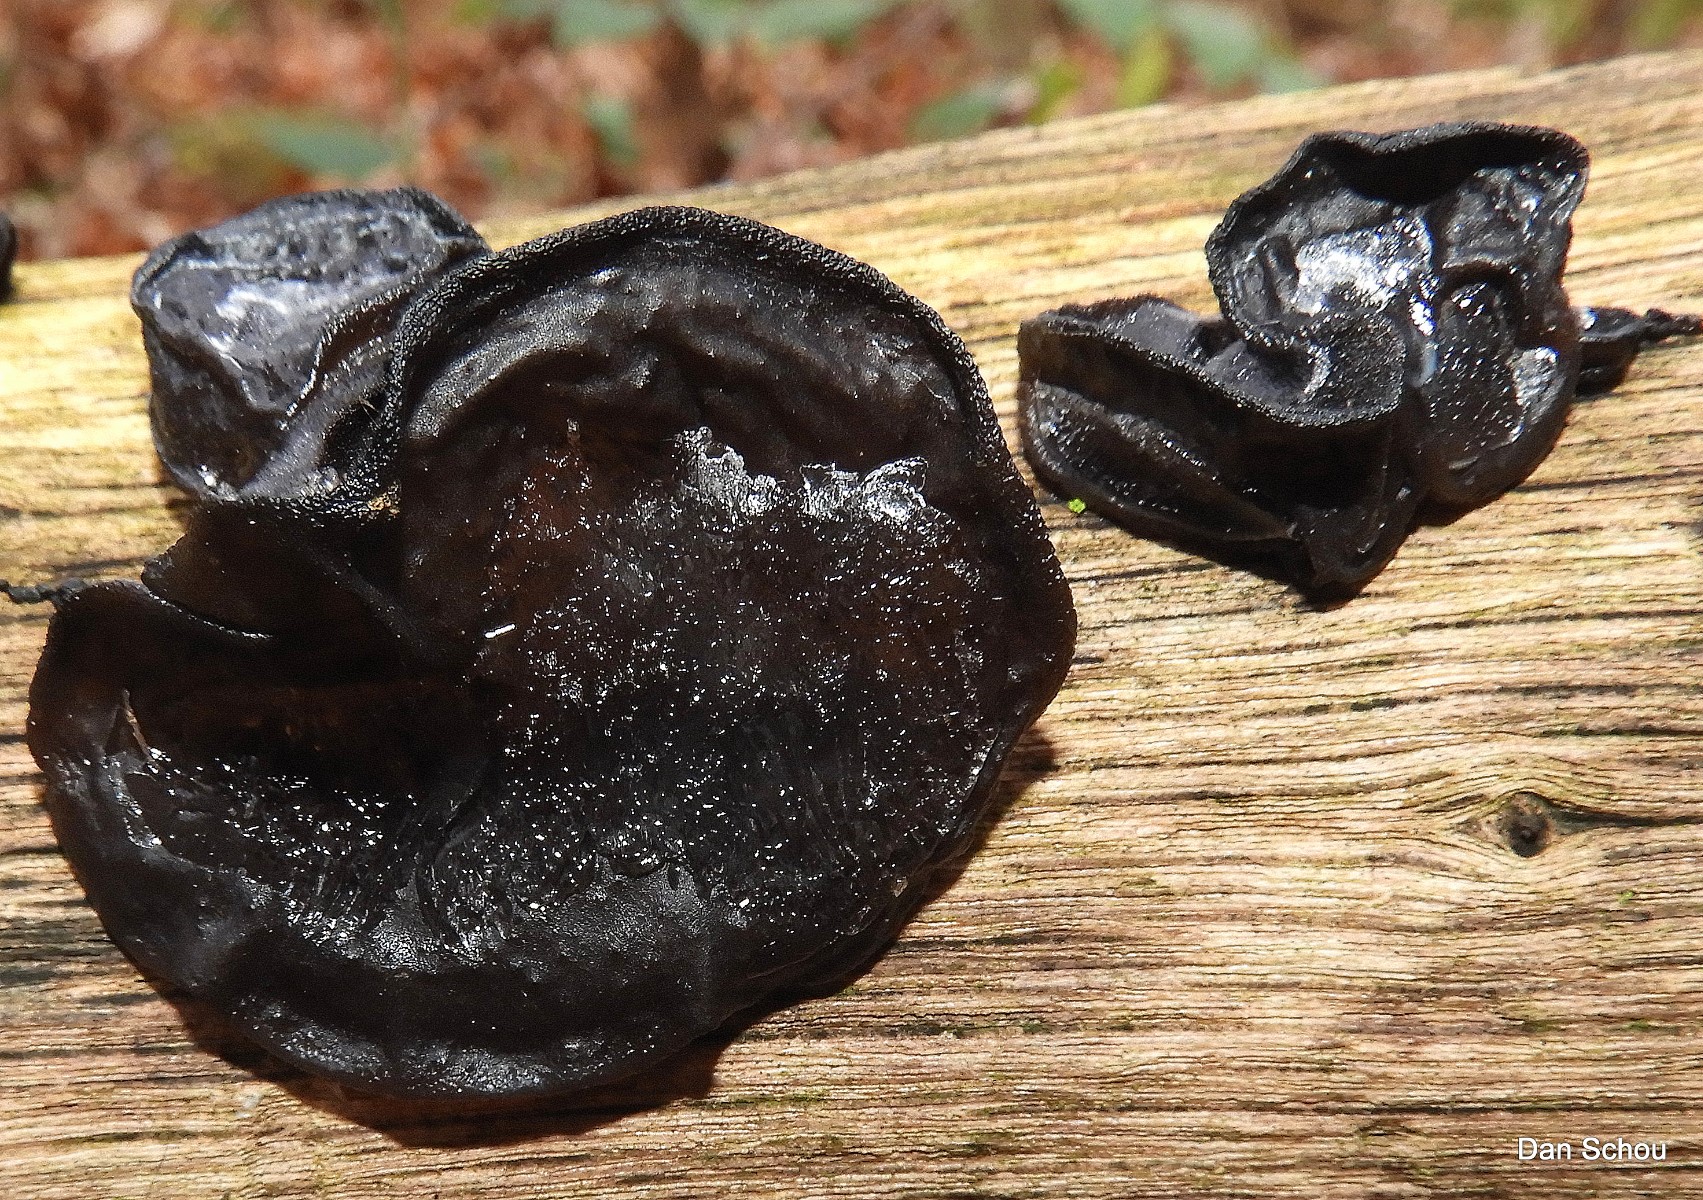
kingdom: Fungi
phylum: Basidiomycota
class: Agaricomycetes
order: Auriculariales
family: Auriculariaceae
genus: Exidia
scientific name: Exidia glandulosa
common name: ege-bævretop
